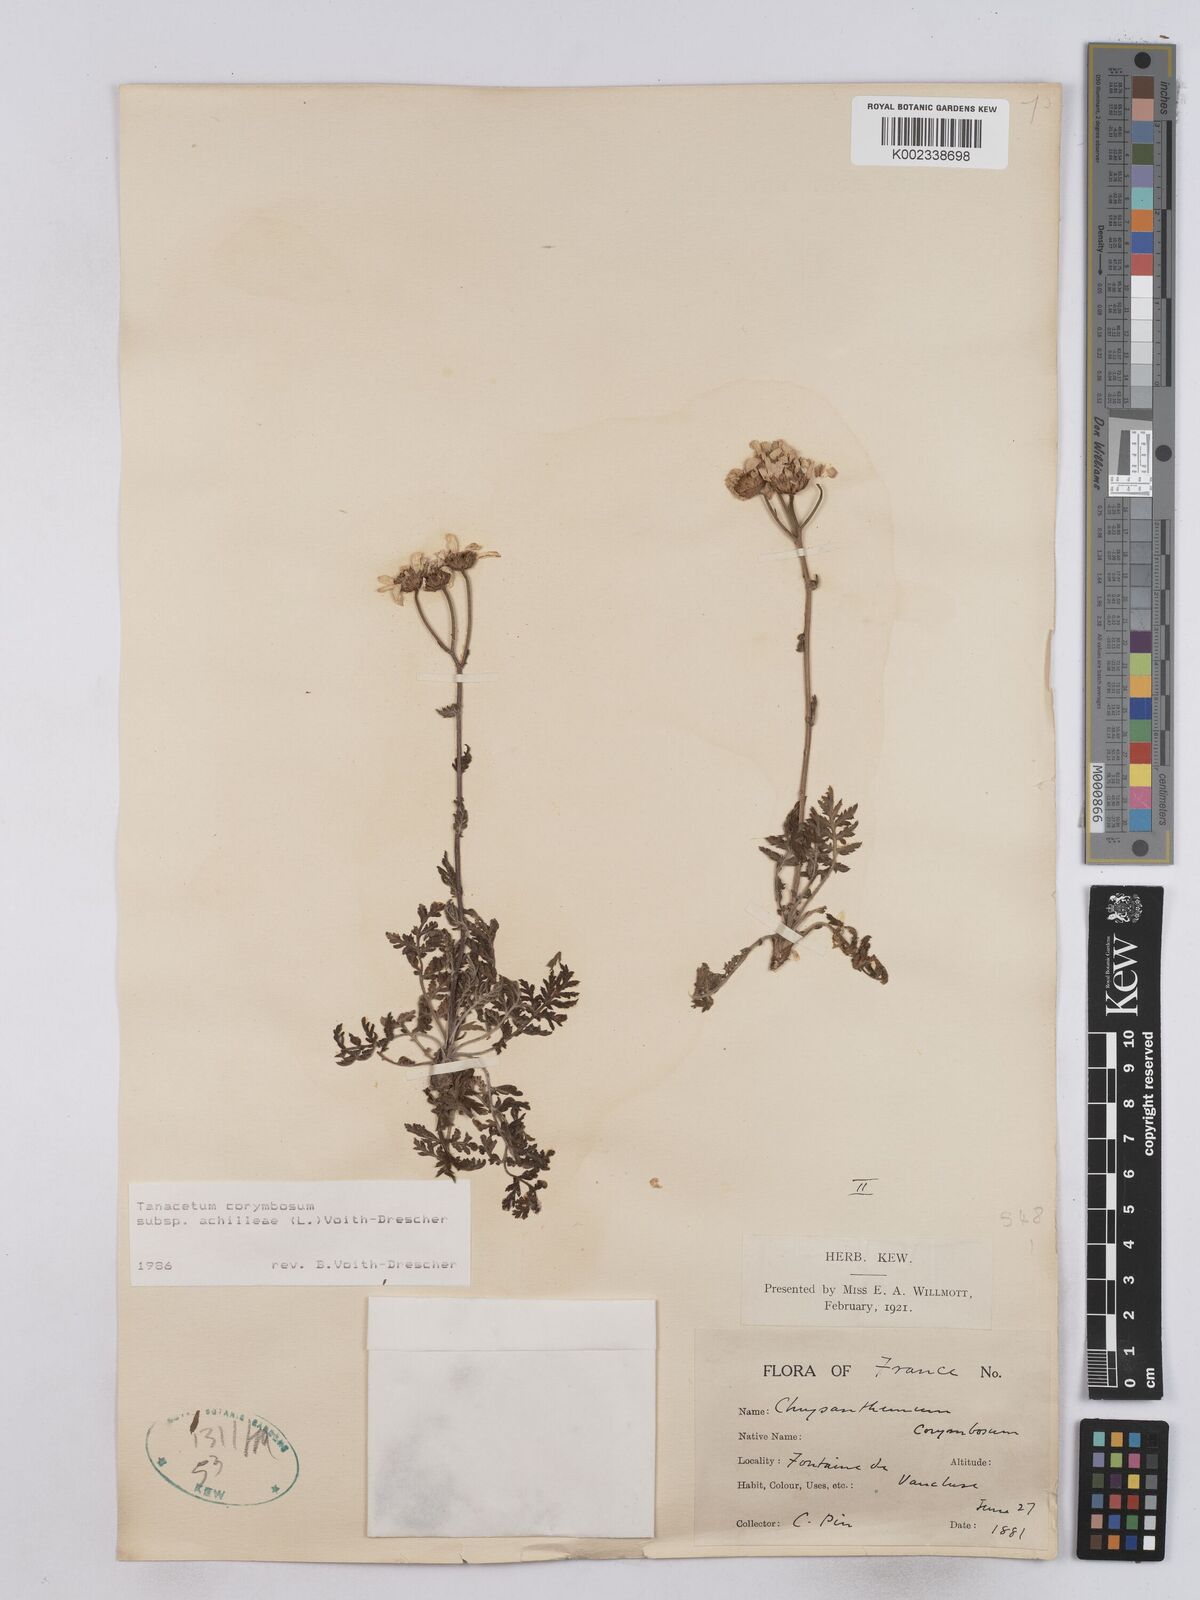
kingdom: Plantae
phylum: Tracheophyta
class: Magnoliopsida
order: Asterales
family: Asteraceae
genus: Tanacetum
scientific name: Tanacetum corymbosum
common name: Scentless feverfew
